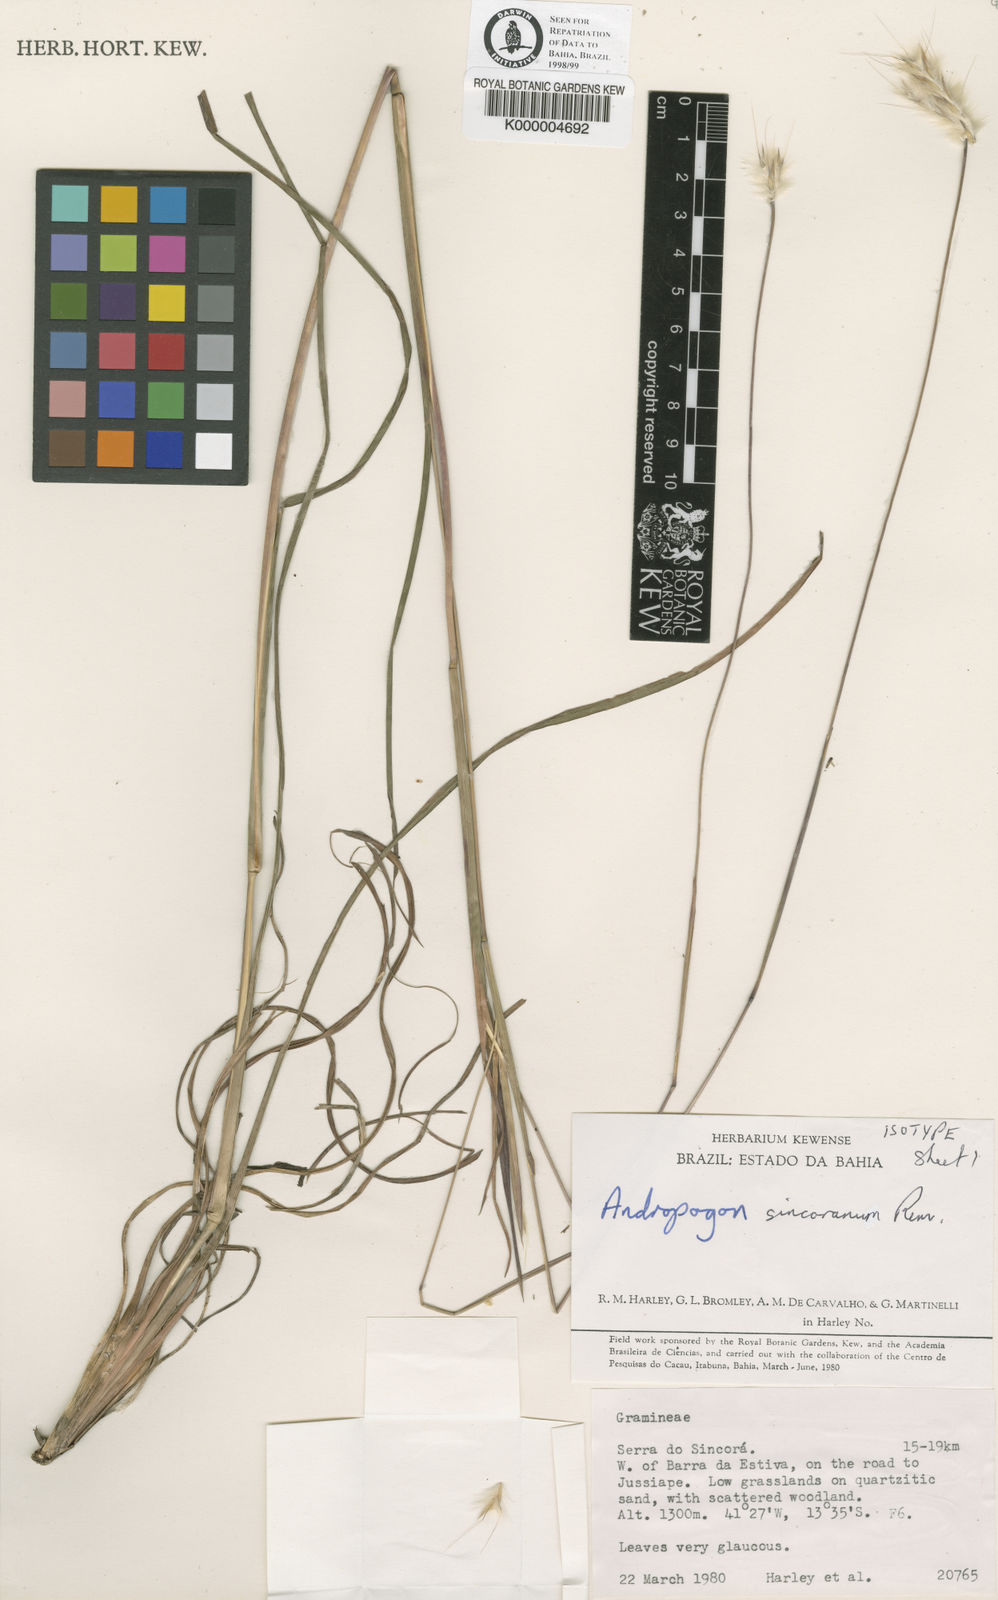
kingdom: Plantae
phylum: Tracheophyta
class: Liliopsida
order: Poales
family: Poaceae
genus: Andropogon
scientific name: Andropogon ingratus
